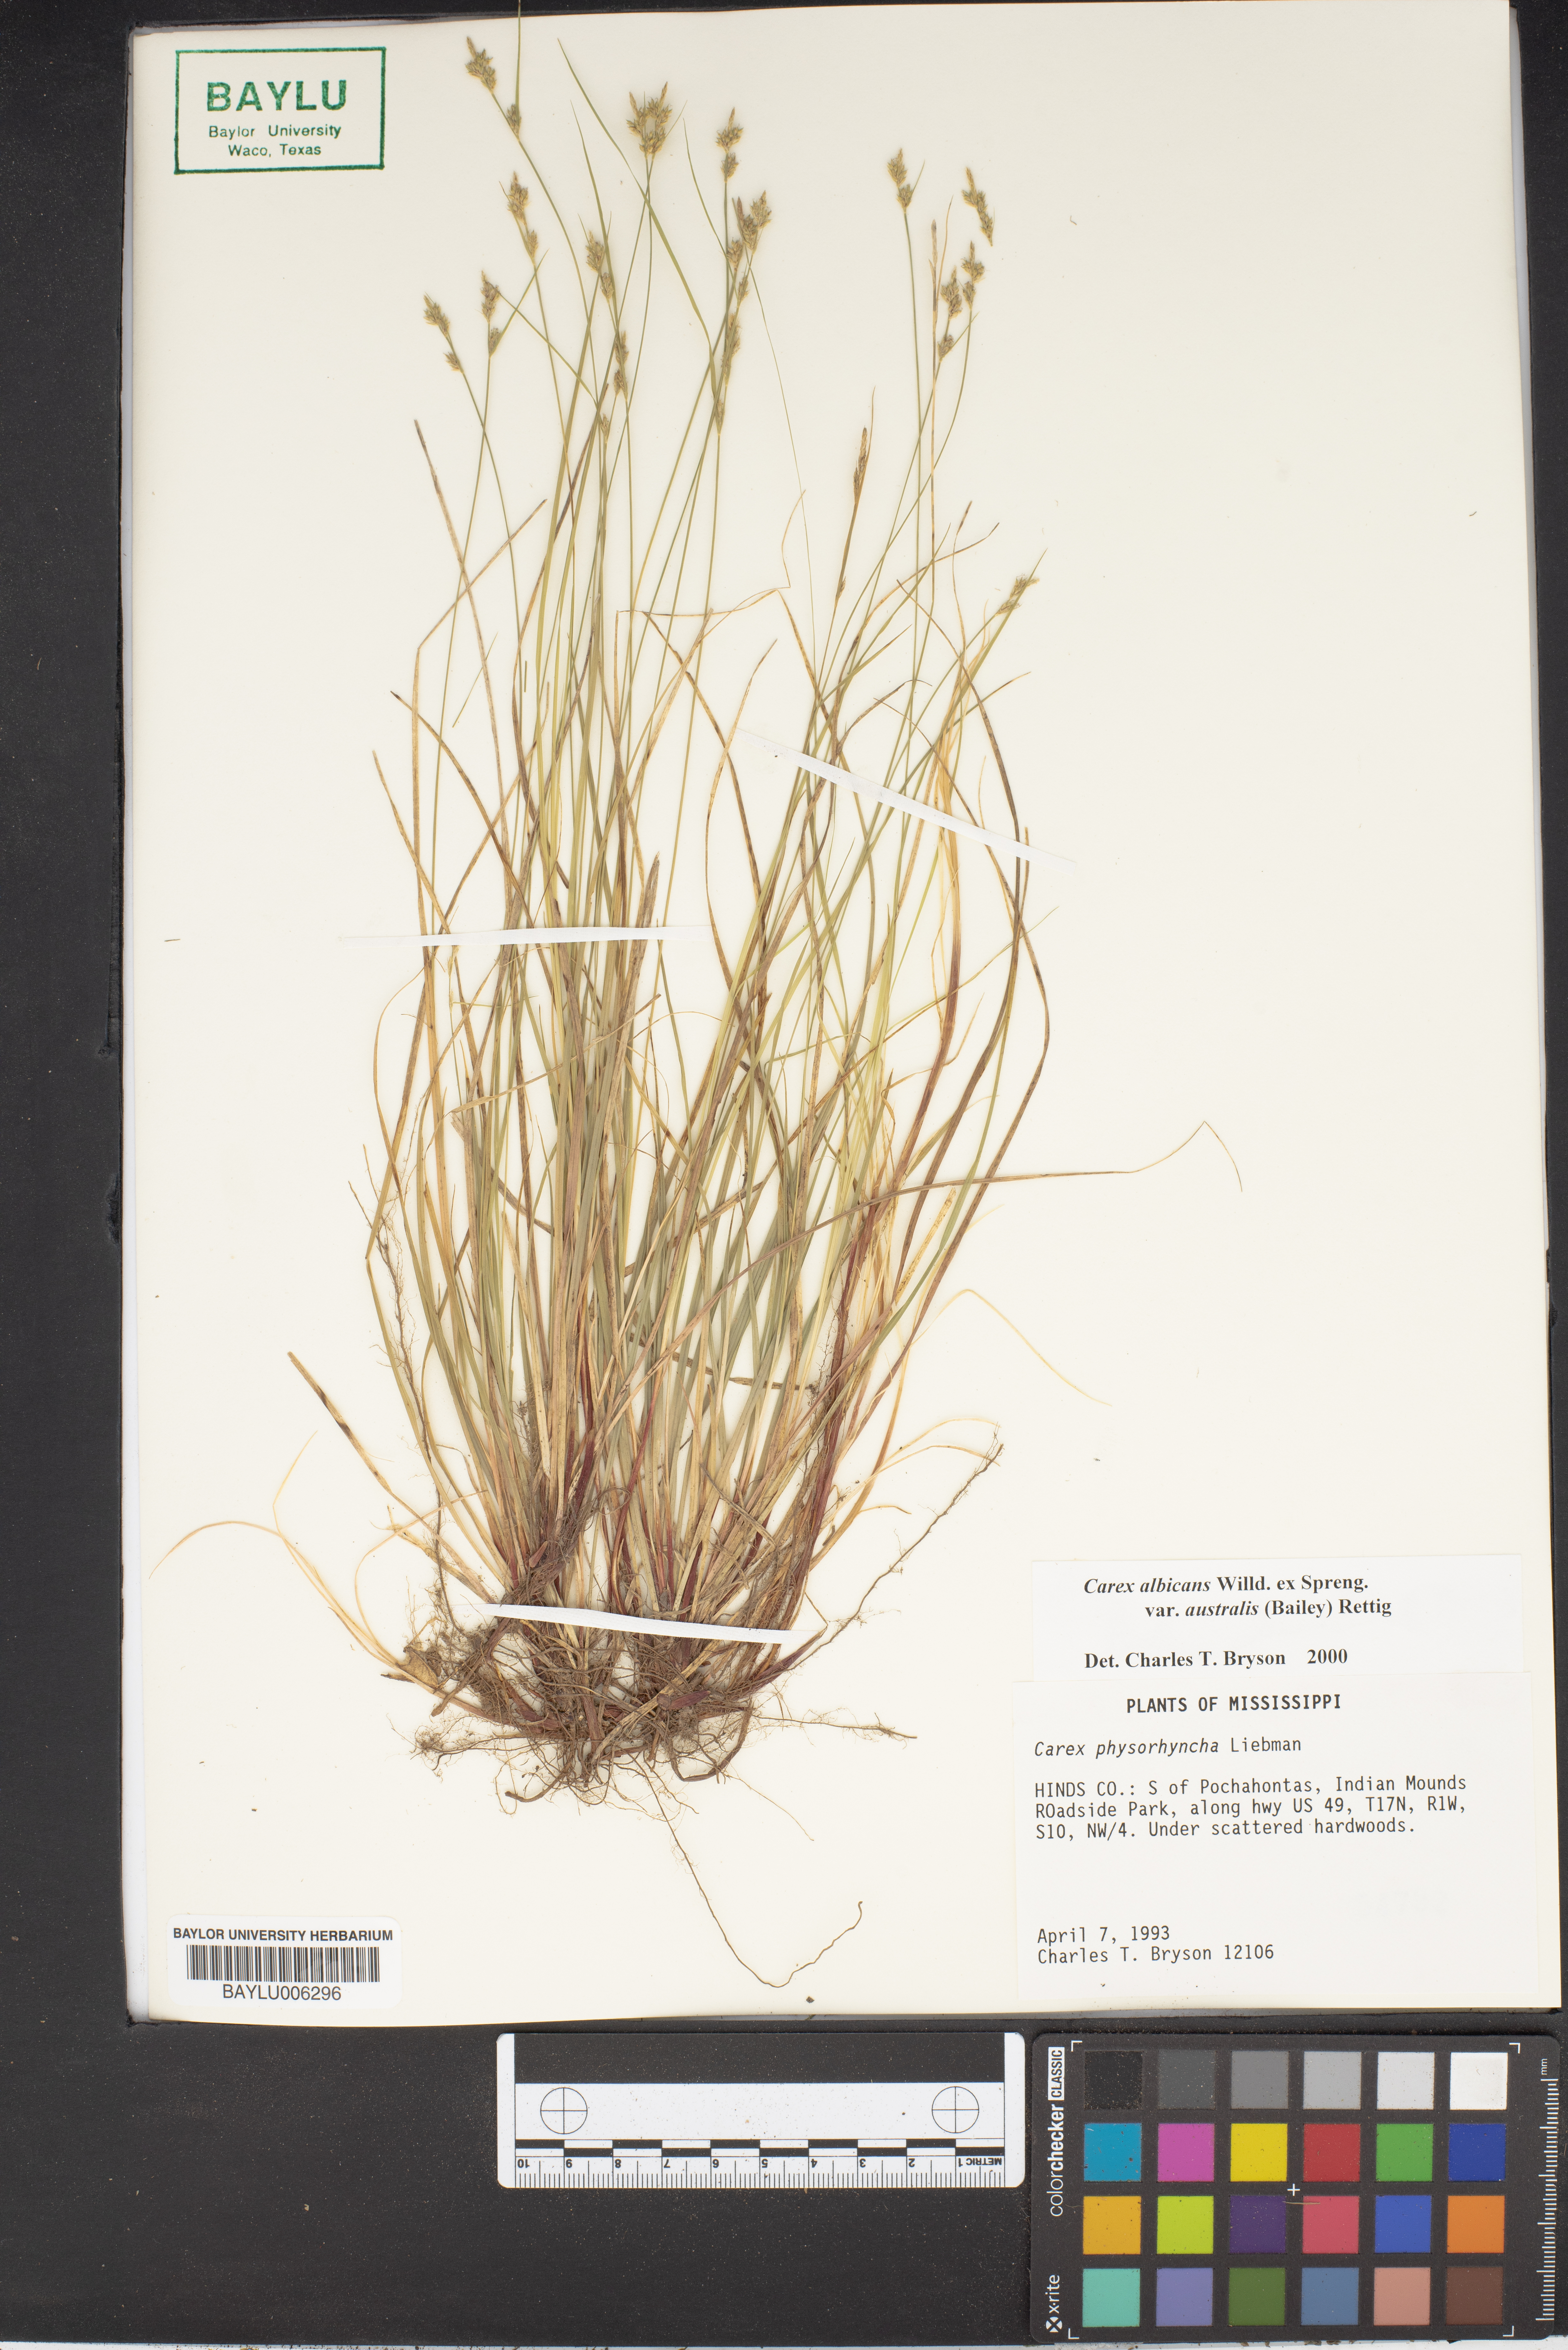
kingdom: Plantae
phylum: Tracheophyta
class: Liliopsida
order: Poales
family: Cyperaceae
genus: Carex
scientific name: Carex albicans
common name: Bellow-beaked sedge
